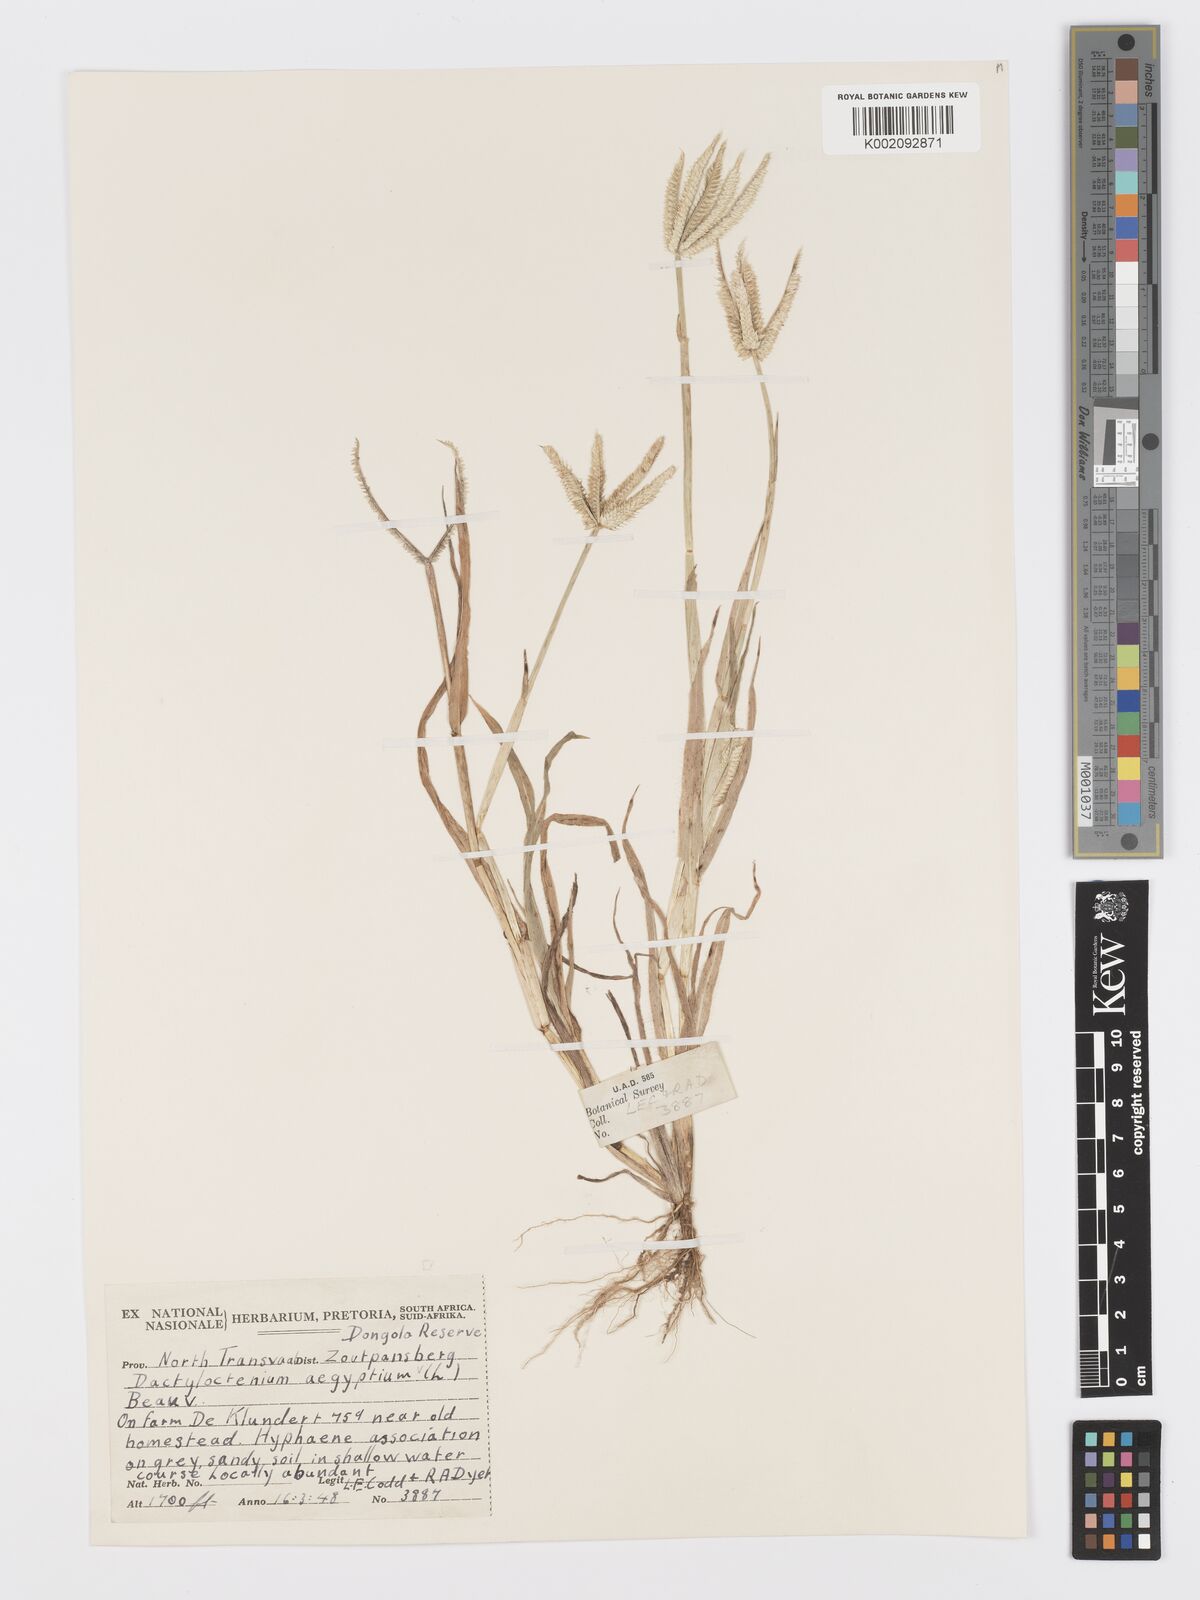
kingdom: Plantae
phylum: Tracheophyta
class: Liliopsida
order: Poales
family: Poaceae
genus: Dactyloctenium
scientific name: Dactyloctenium aegyptium
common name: Egyptian grass
